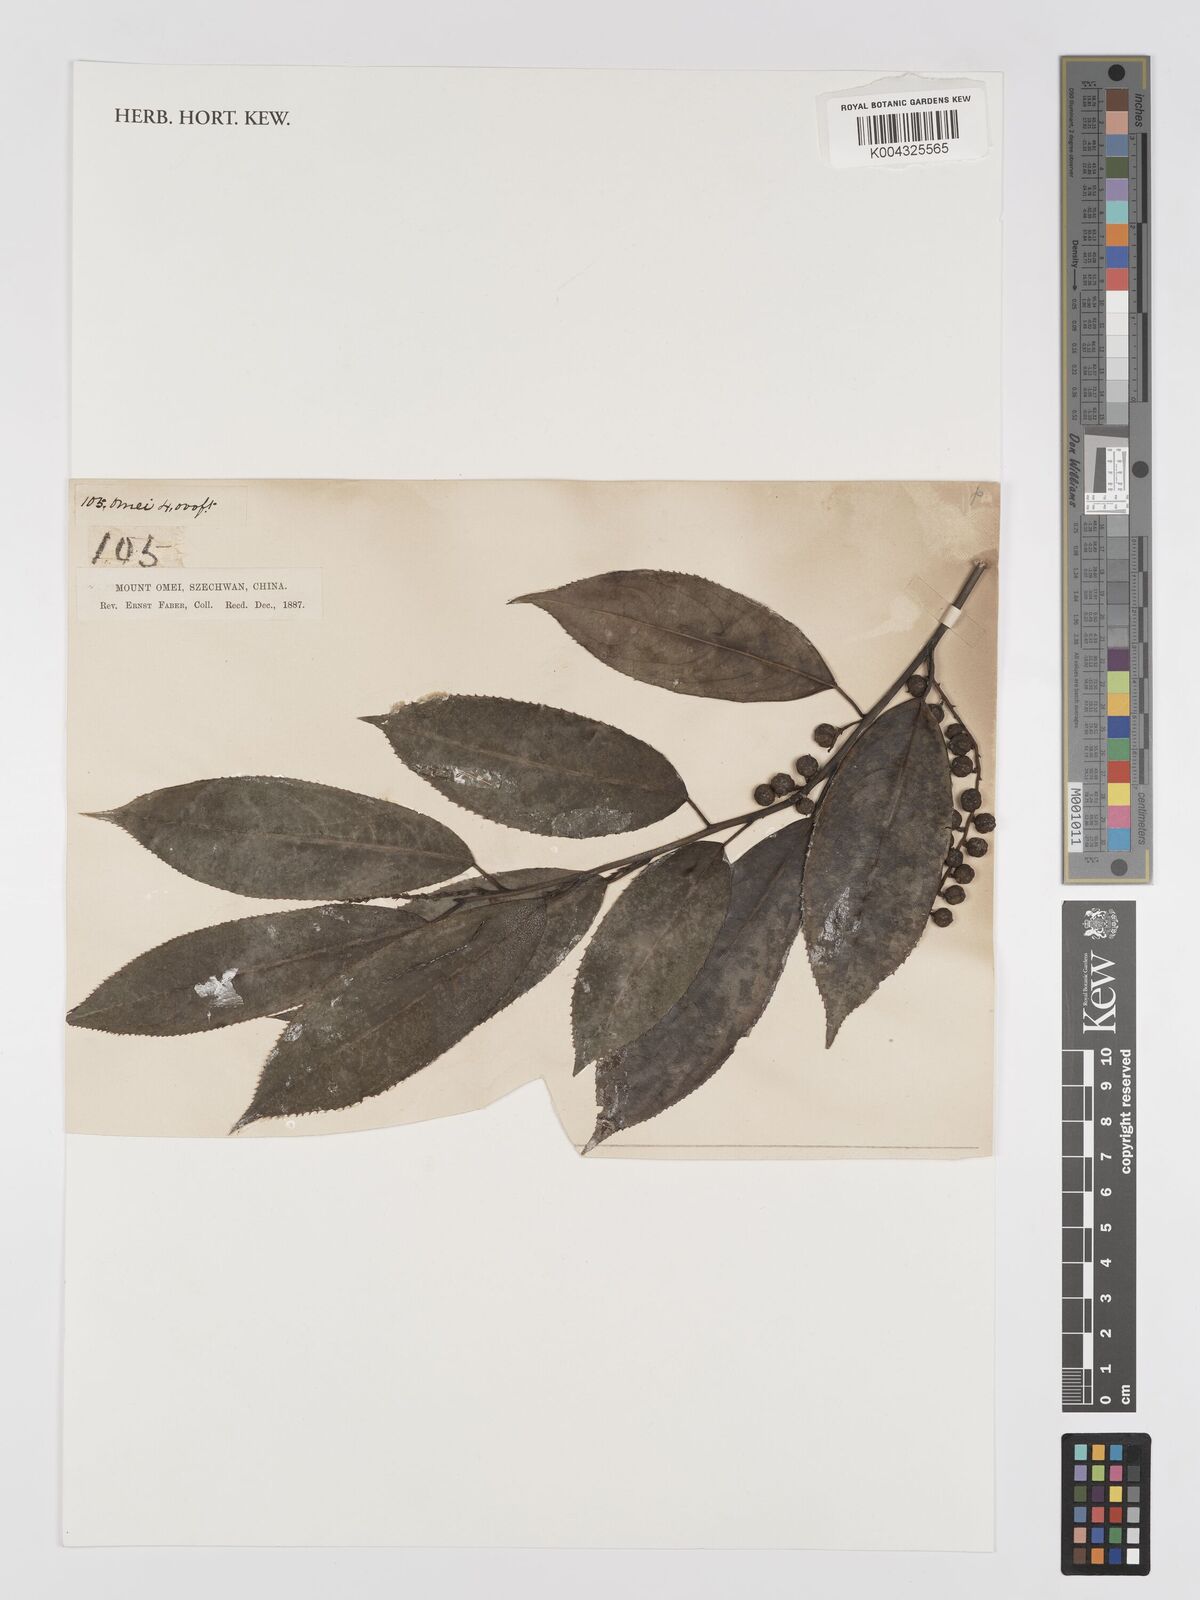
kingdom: Plantae
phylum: Tracheophyta
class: Magnoliopsida
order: Crossosomatales
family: Stachyuraceae
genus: Stachyurus
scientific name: Stachyurus
